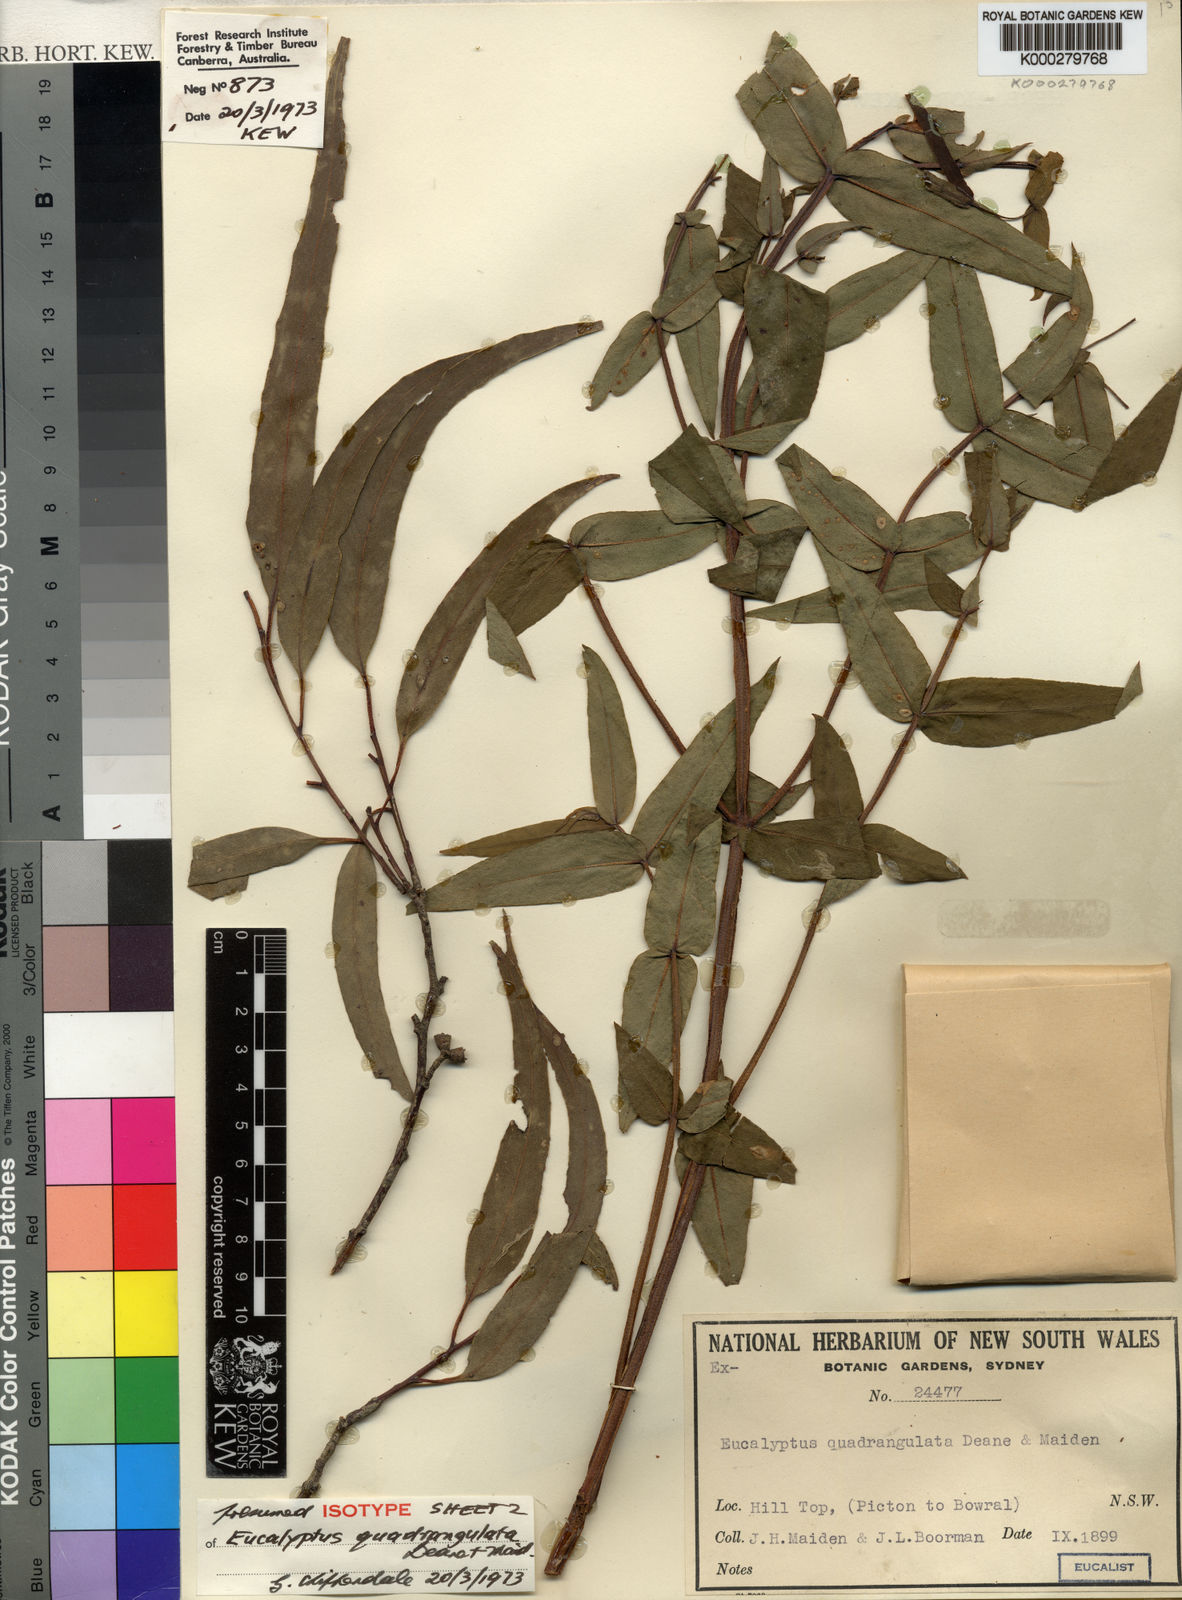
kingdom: Plantae
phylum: Tracheophyta
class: Magnoliopsida
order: Myrtales
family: Myrtaceae
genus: Eucalyptus
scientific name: Eucalyptus quadrangulata
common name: Coastal box
